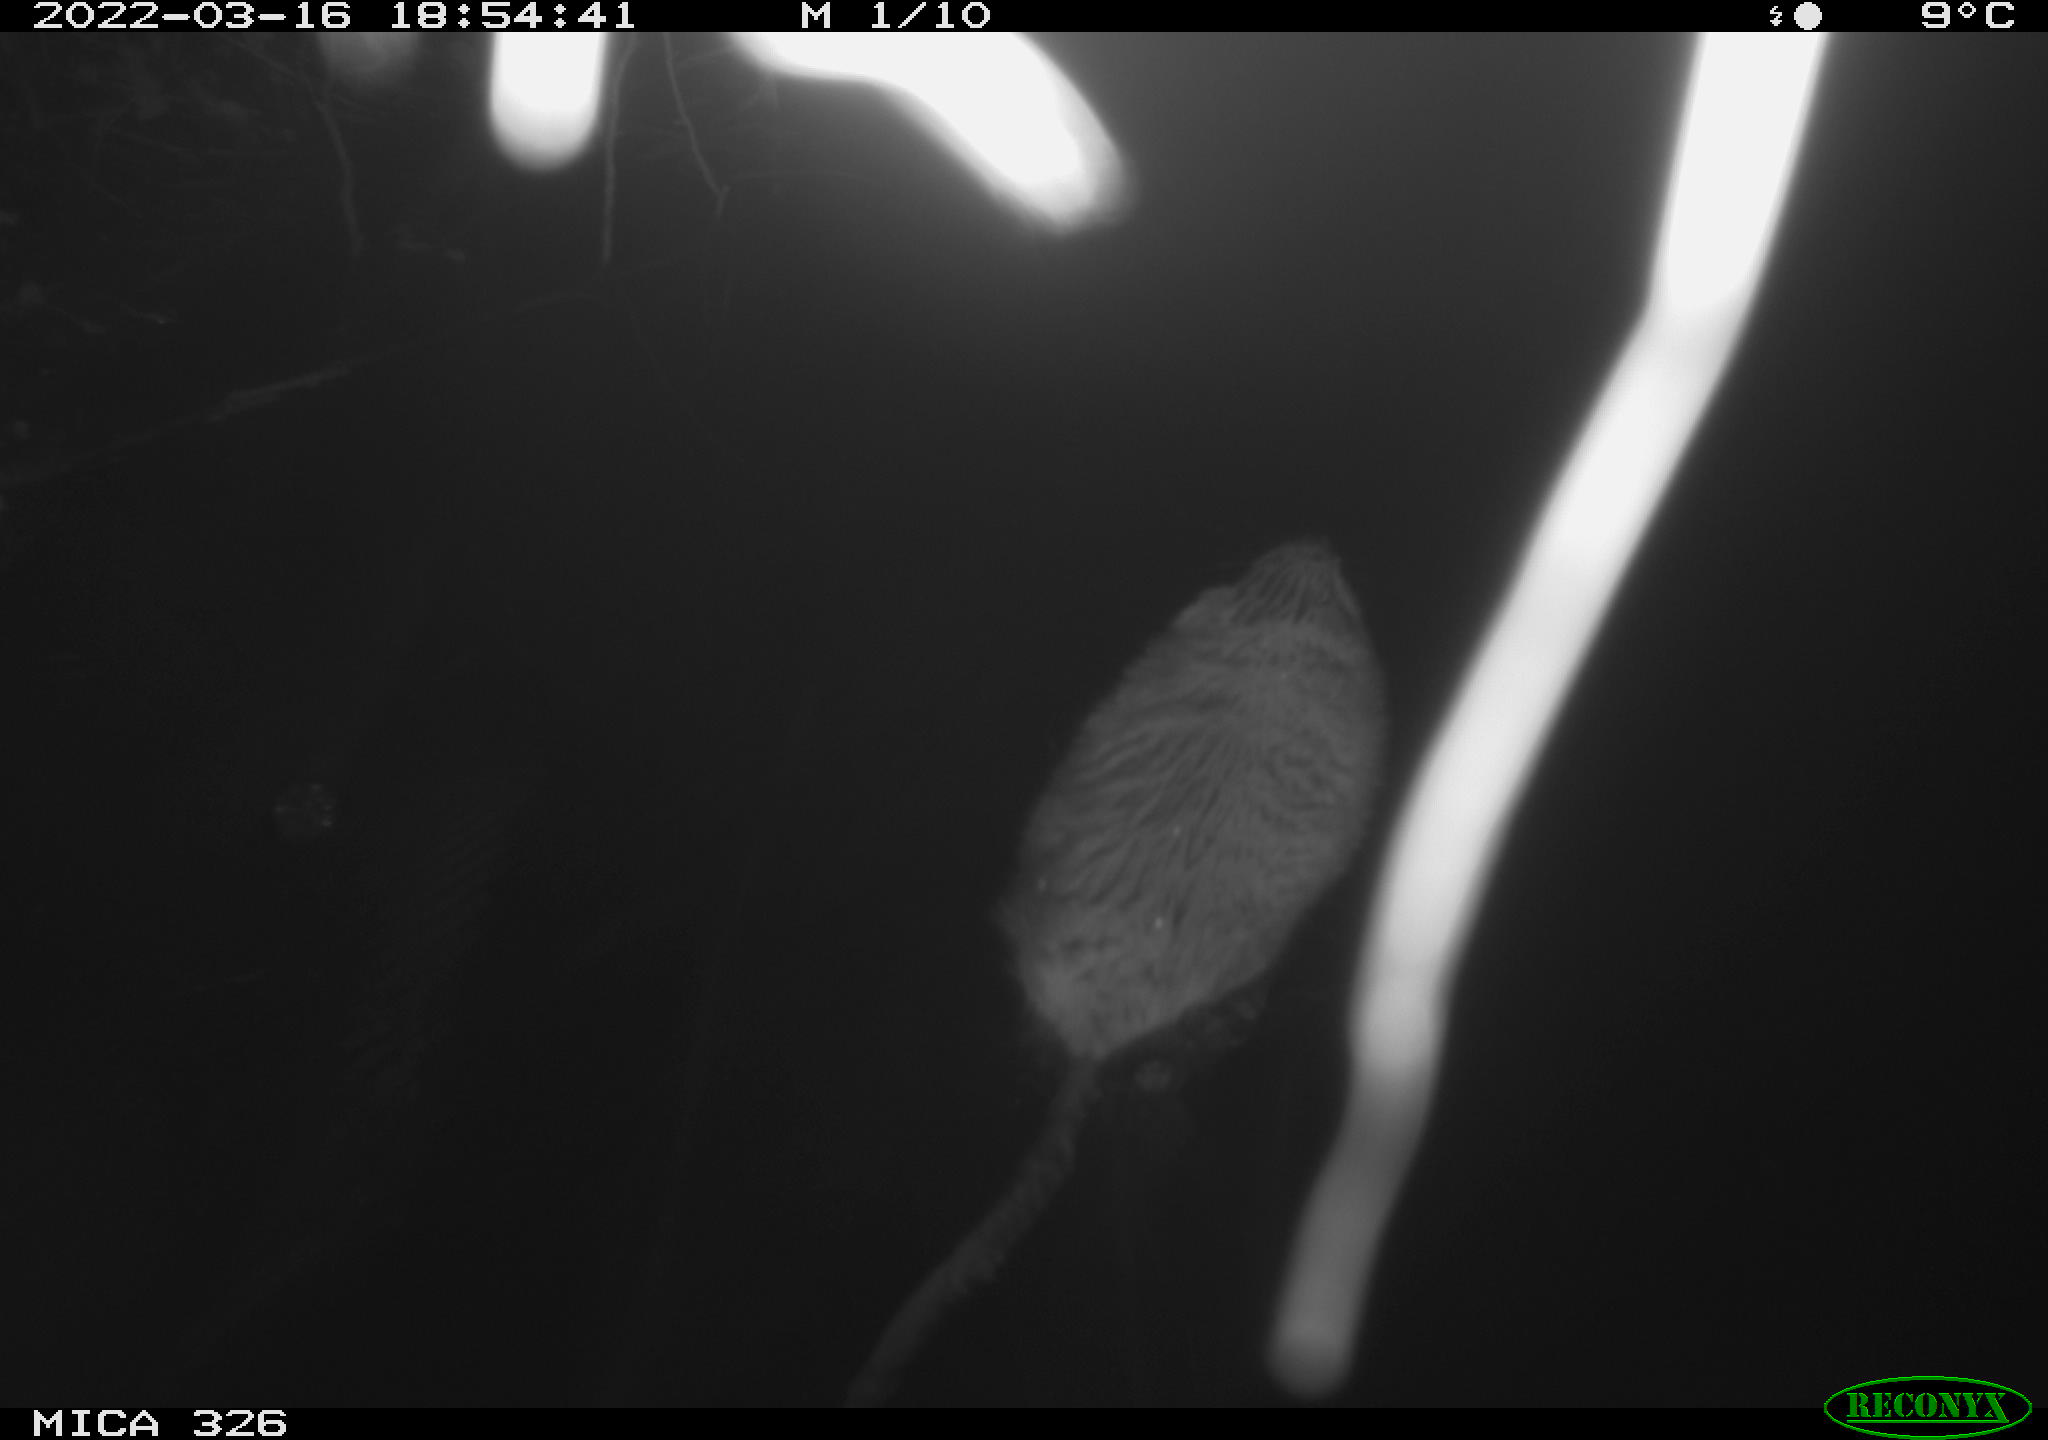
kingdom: Animalia
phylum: Chordata
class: Mammalia
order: Rodentia
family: Cricetidae
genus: Ondatra
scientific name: Ondatra zibethicus
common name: Muskrat
